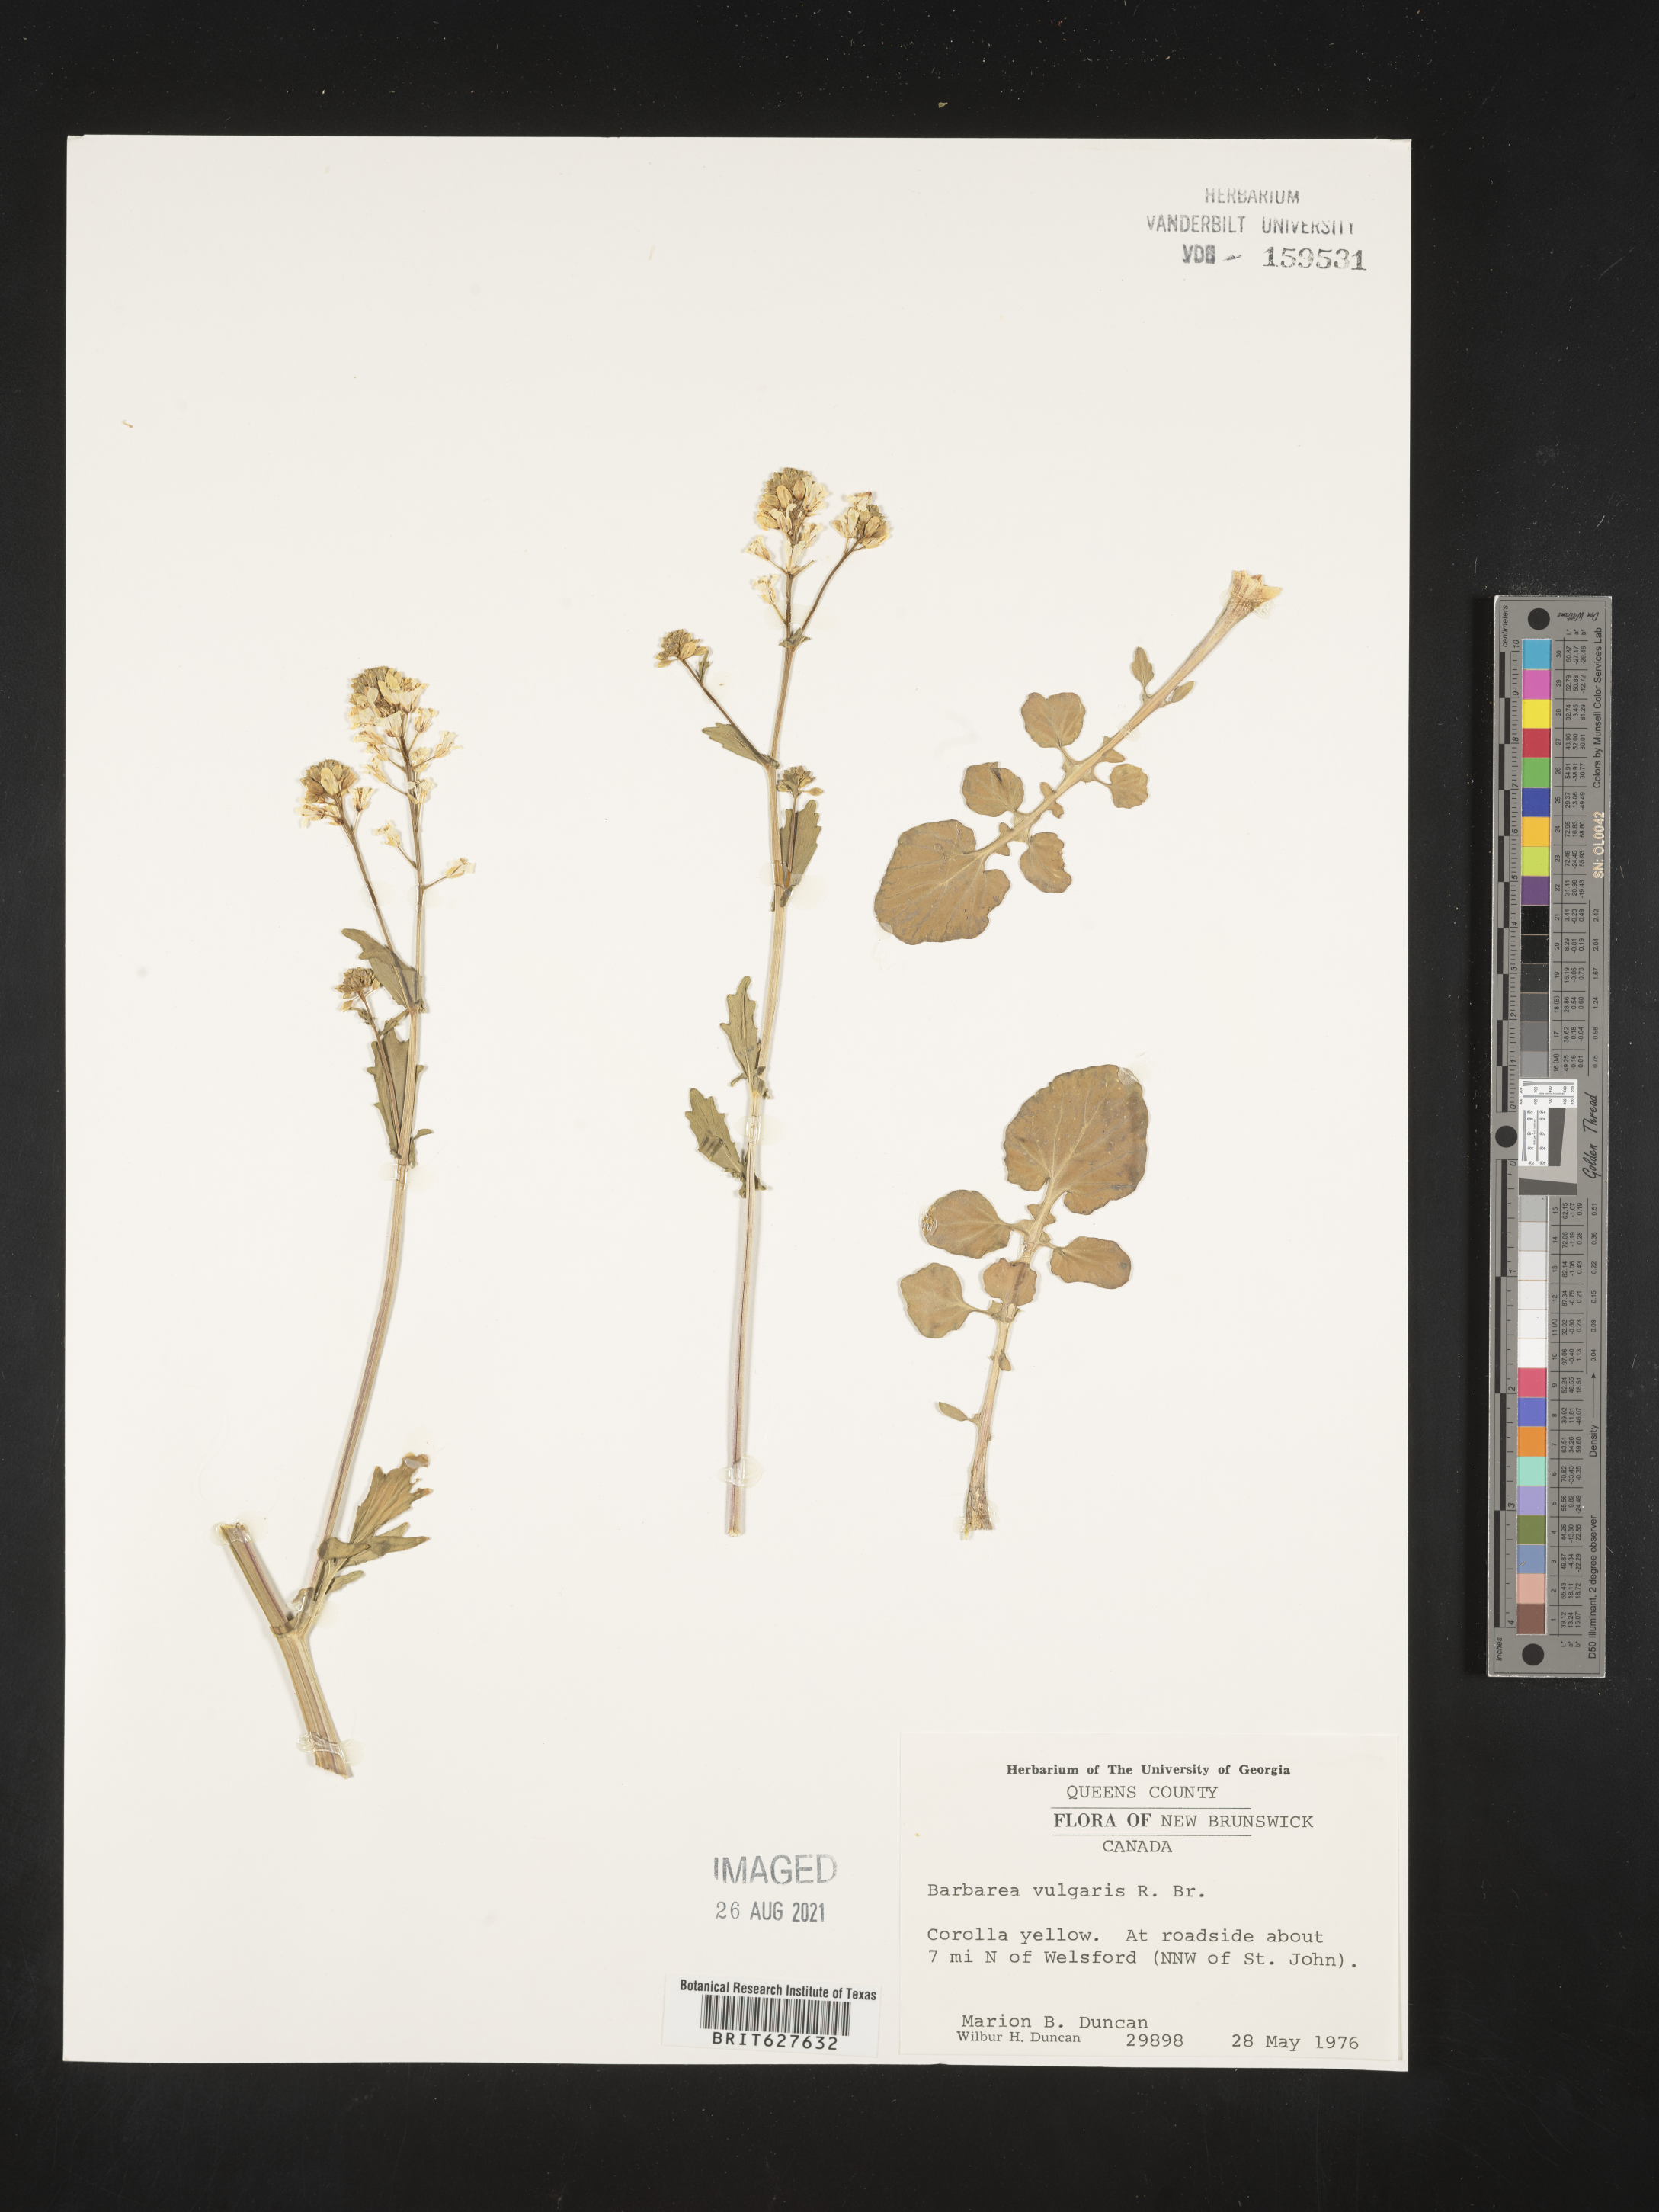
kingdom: Plantae
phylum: Tracheophyta
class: Magnoliopsida
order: Brassicales
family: Brassicaceae
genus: Barbarea
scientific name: Barbarea vulgaris
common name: Cressy-greens
